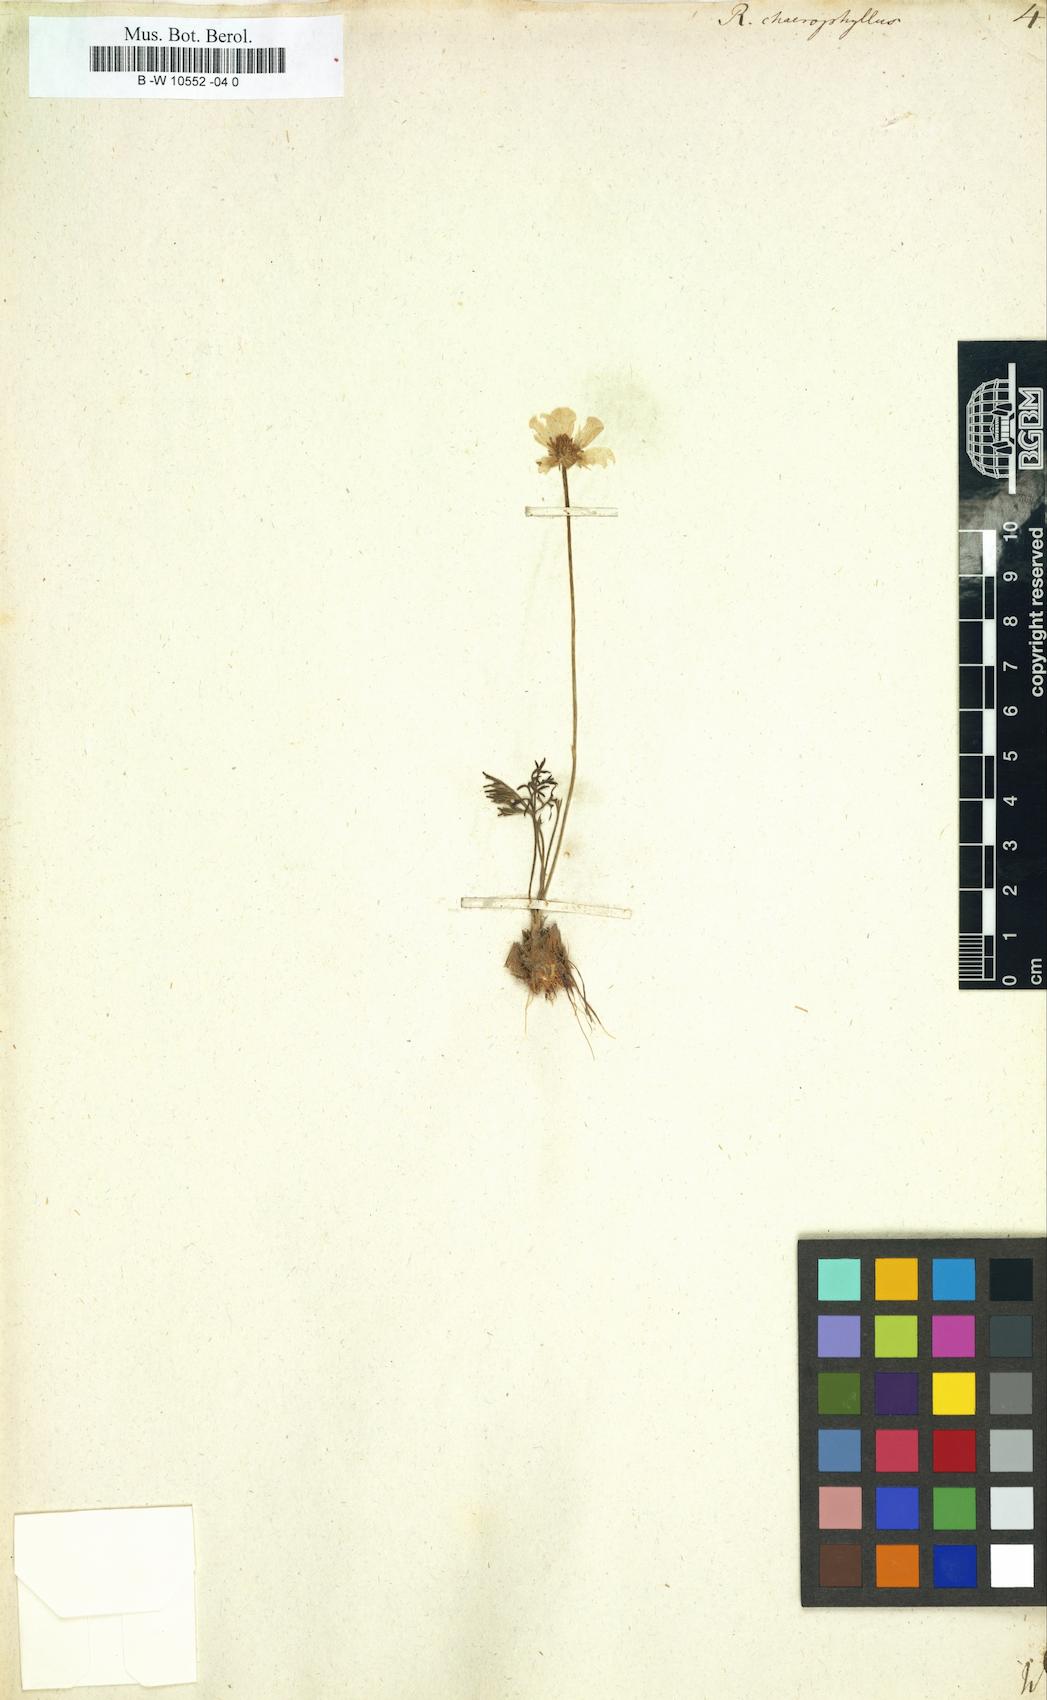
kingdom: Plantae
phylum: Tracheophyta
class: Magnoliopsida
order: Ranunculales
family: Ranunculaceae
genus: Ranunculus
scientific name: Ranunculus chaerophyllos
